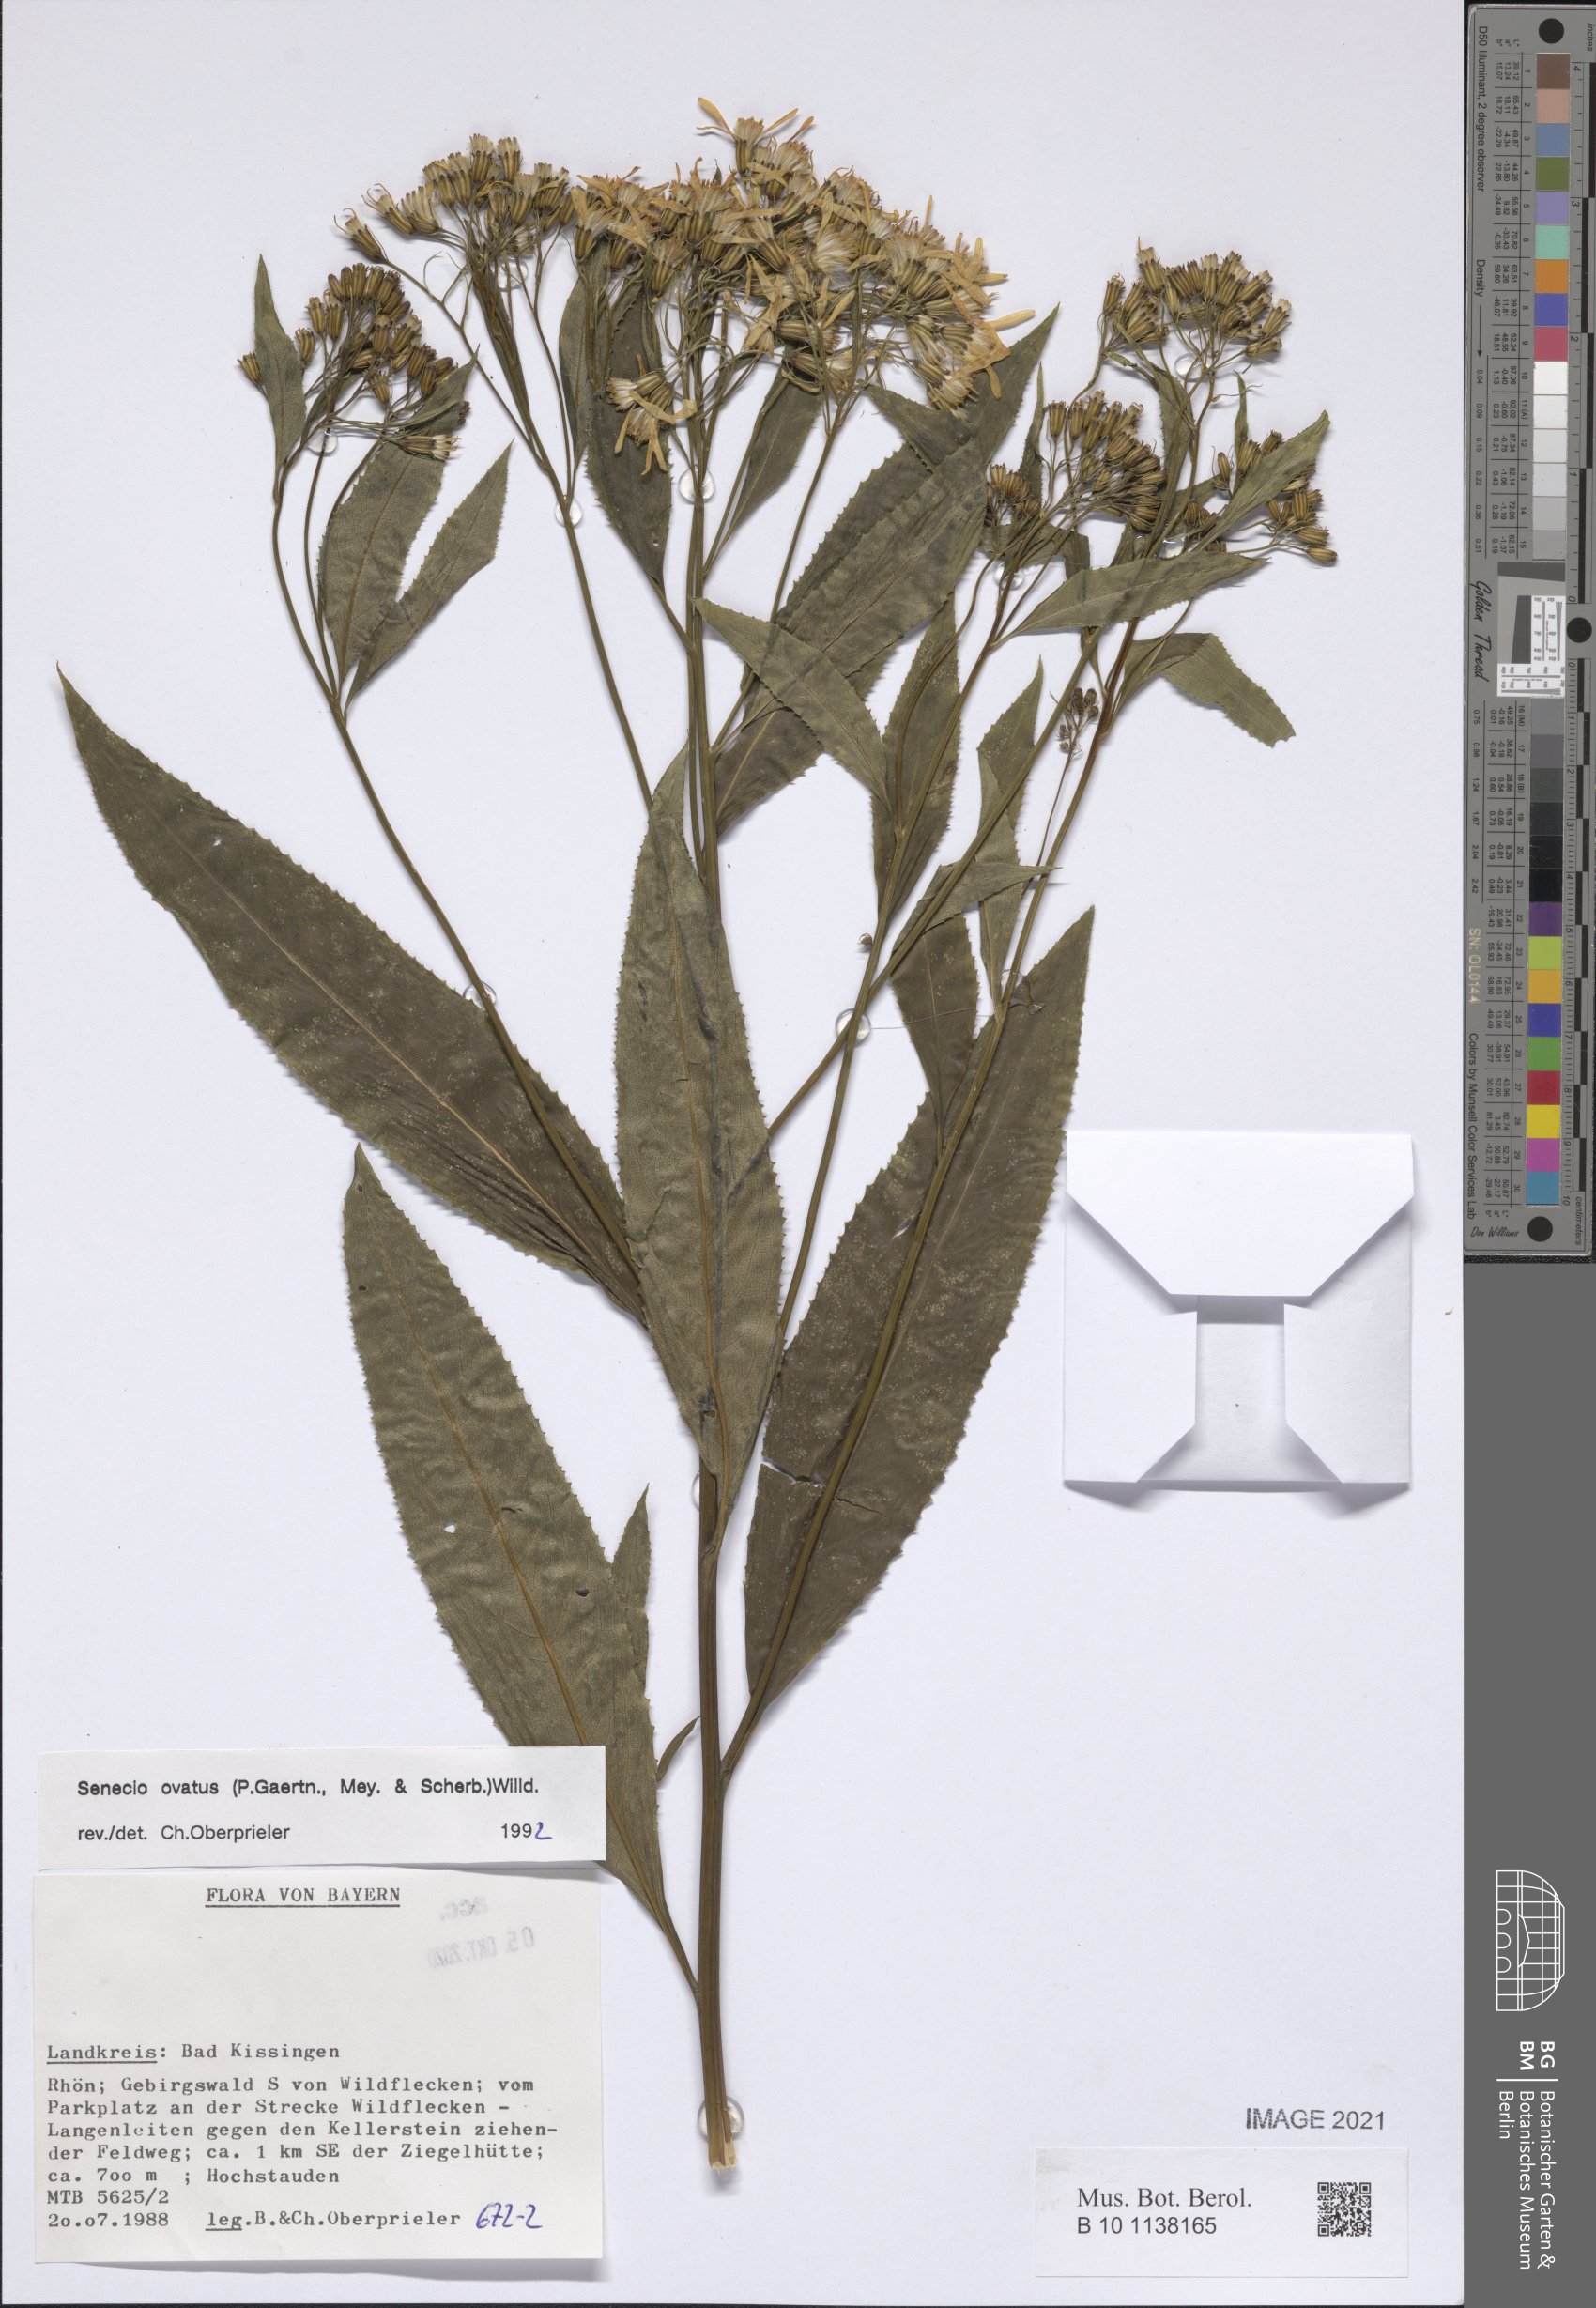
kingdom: Plantae
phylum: Tracheophyta
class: Magnoliopsida
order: Asterales
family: Asteraceae
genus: Senecio
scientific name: Senecio ovatus
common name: Wood ragwort
